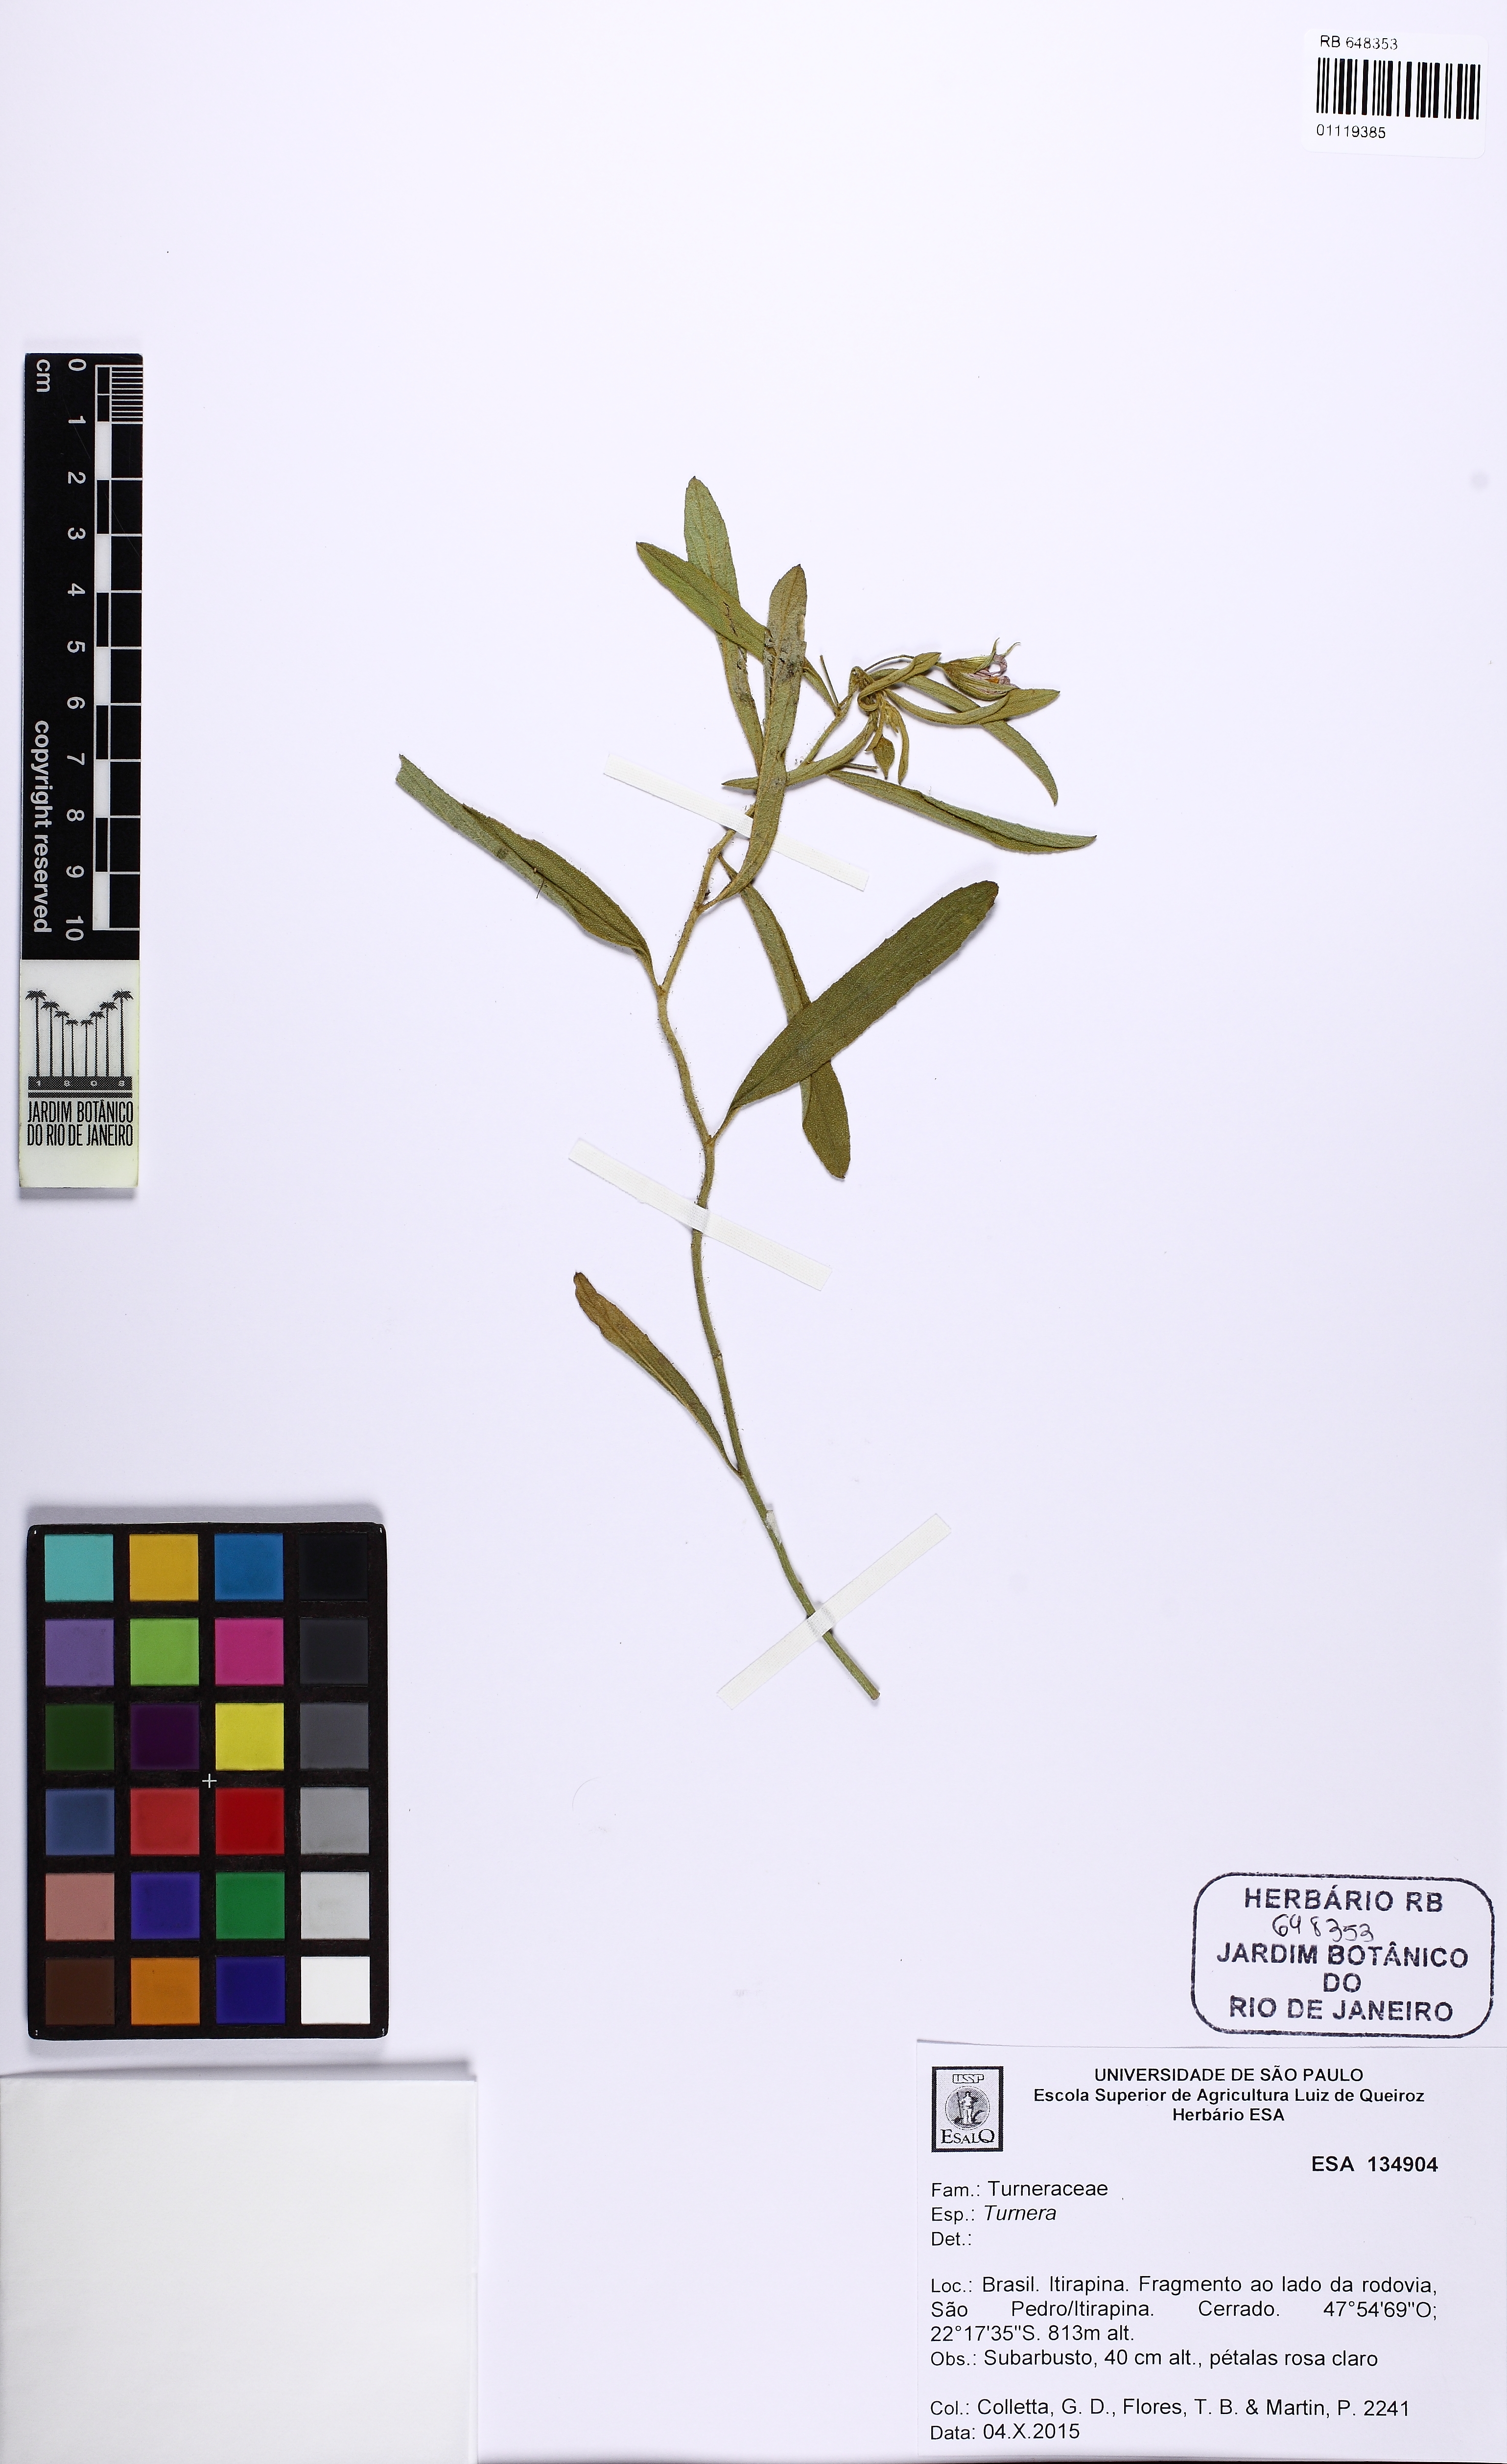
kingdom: Plantae
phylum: Tracheophyta
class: Magnoliopsida
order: Malpighiales
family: Turneraceae
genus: Turnera
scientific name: Turnera
